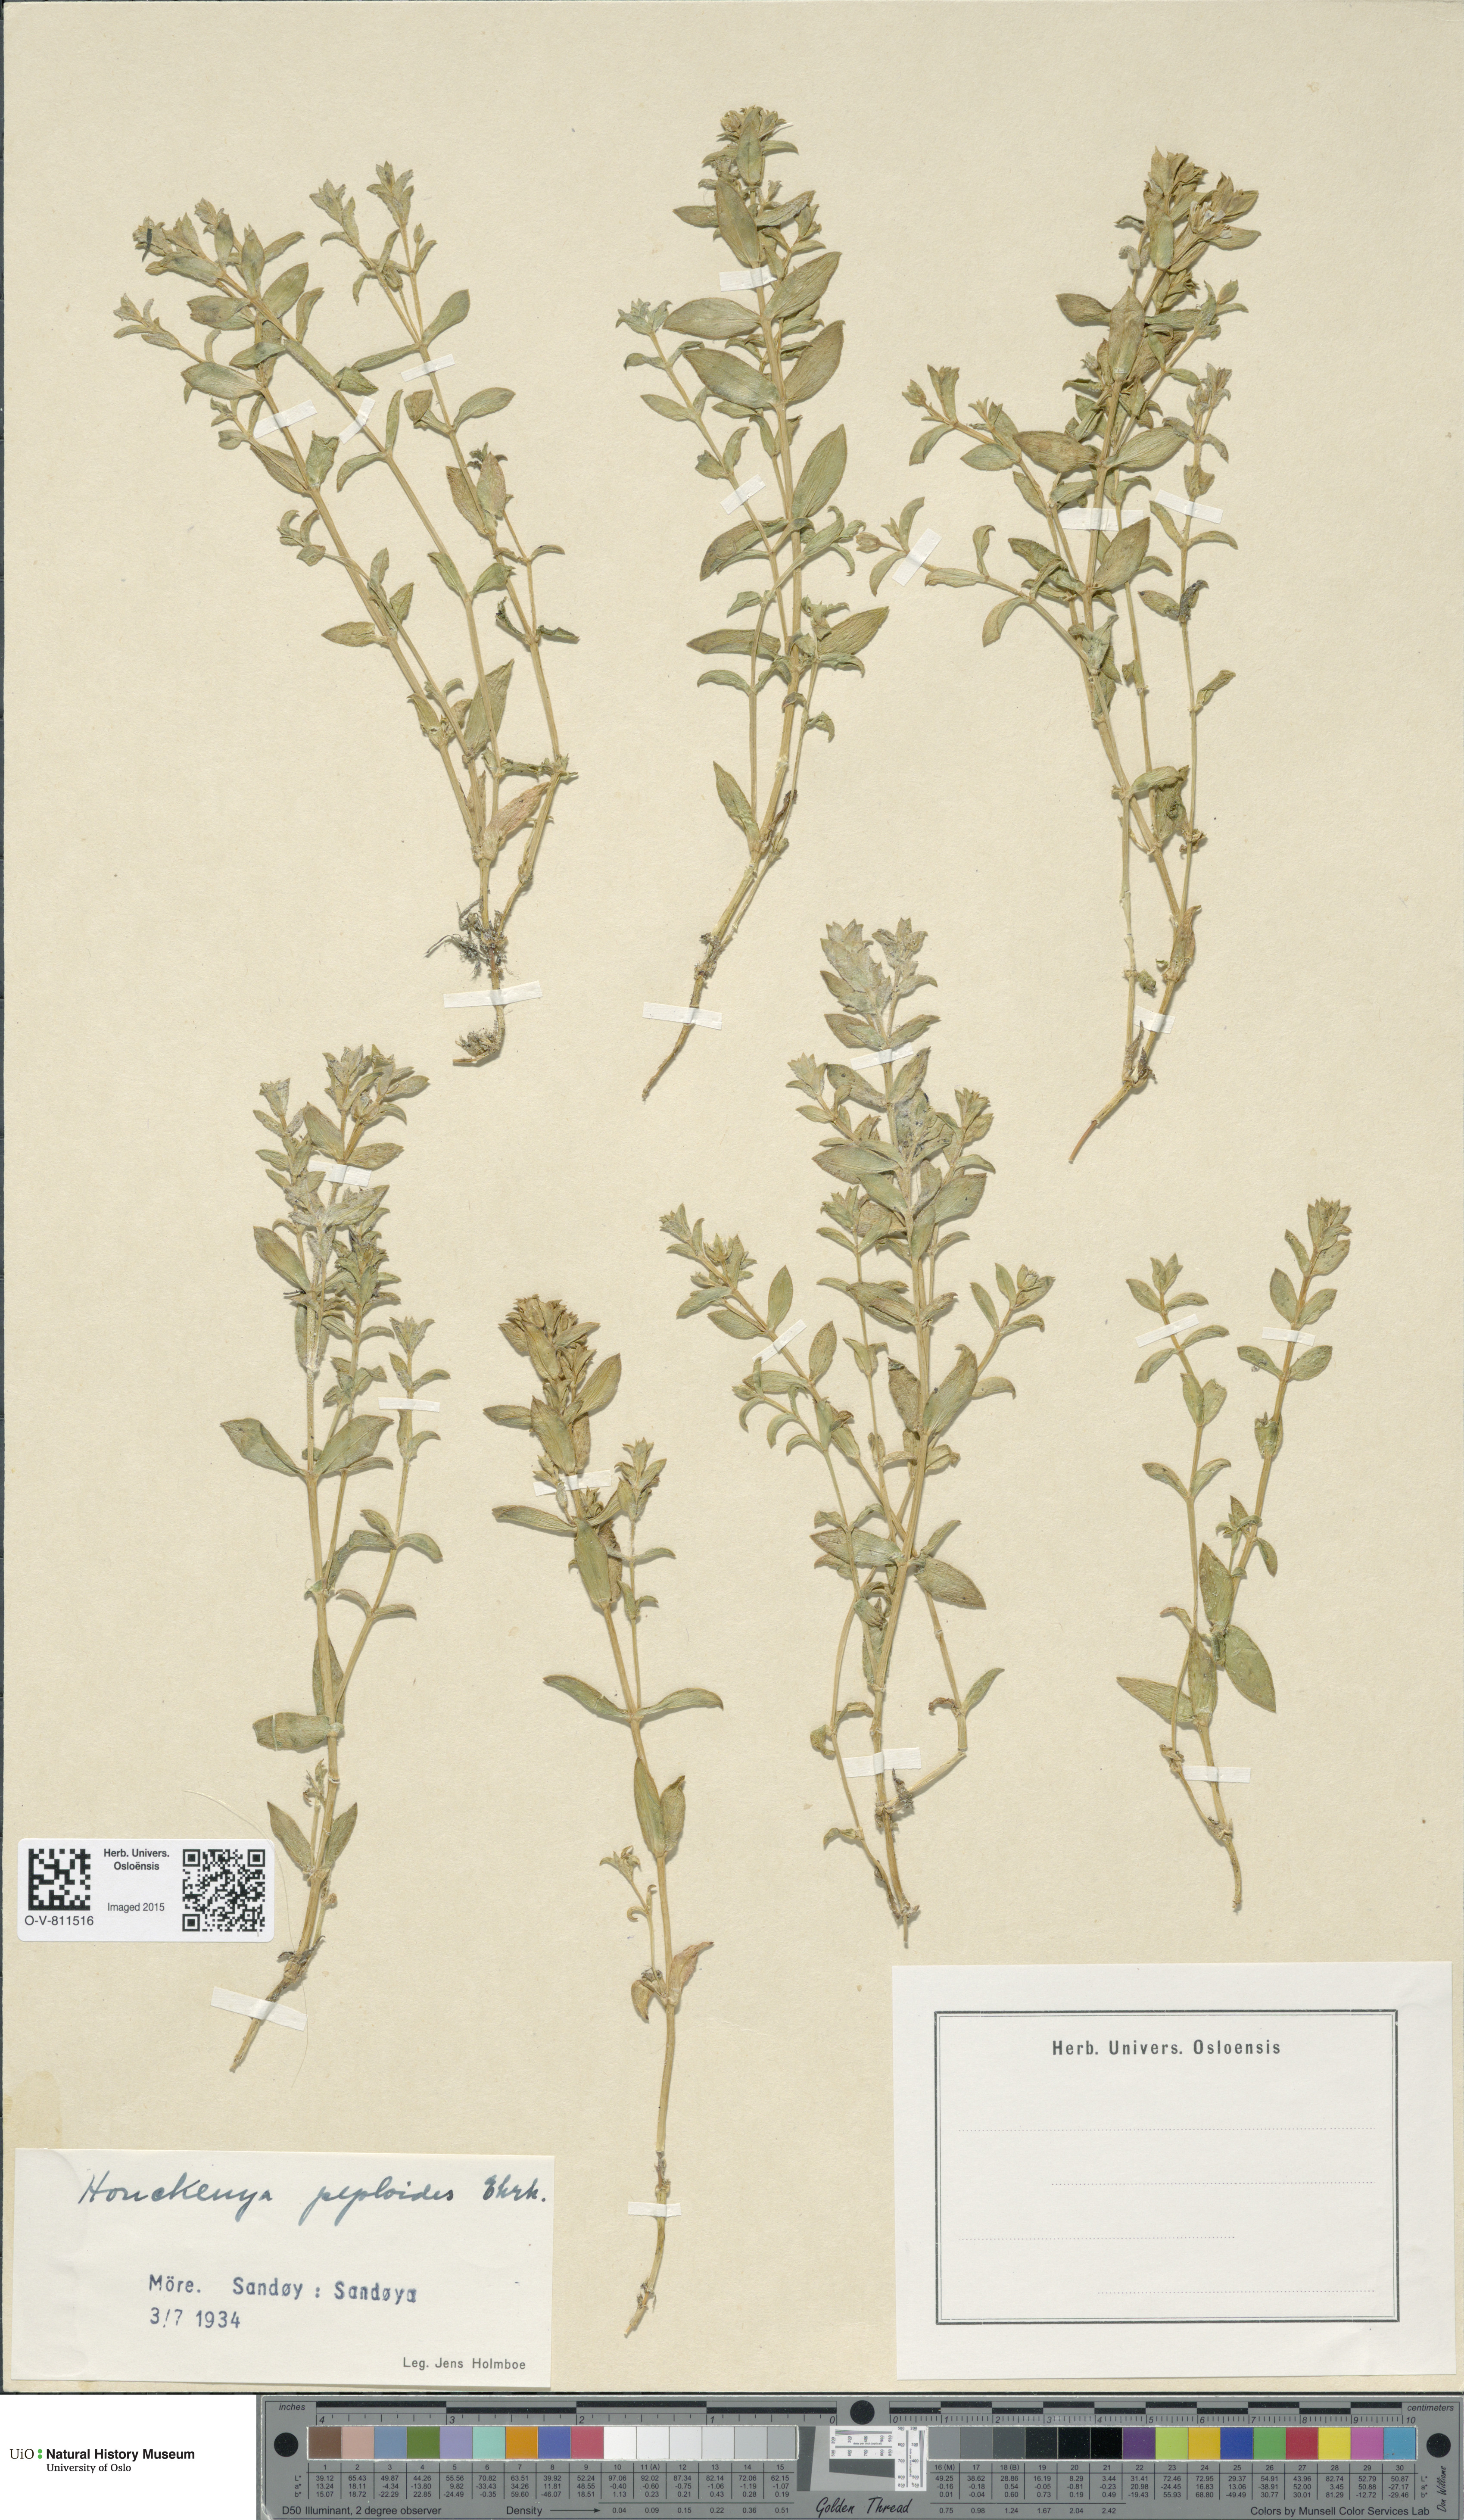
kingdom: Plantae
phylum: Tracheophyta
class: Magnoliopsida
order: Caryophyllales
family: Caryophyllaceae
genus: Honckenya
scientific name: Honckenya peploides
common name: Sea sandwort
